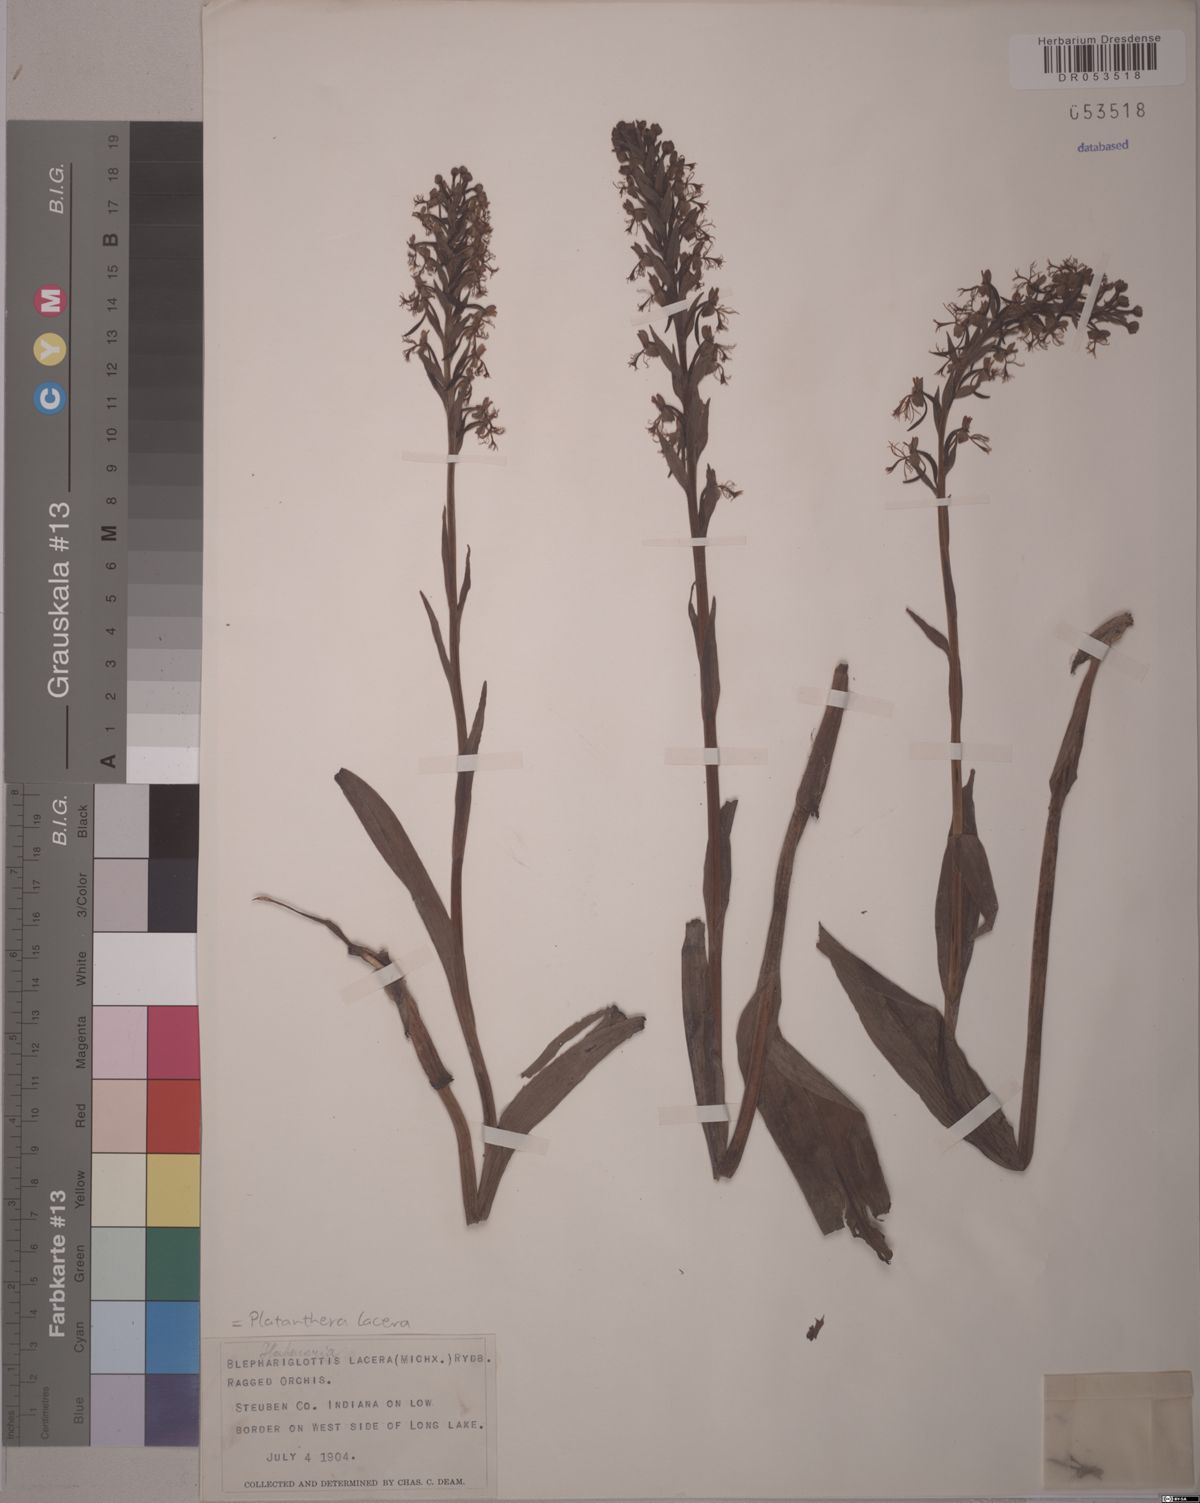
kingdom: Plantae
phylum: Tracheophyta
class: Liliopsida
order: Asparagales
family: Orchidaceae
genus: Platanthera
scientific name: Platanthera lacera
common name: Green fringed orchid
